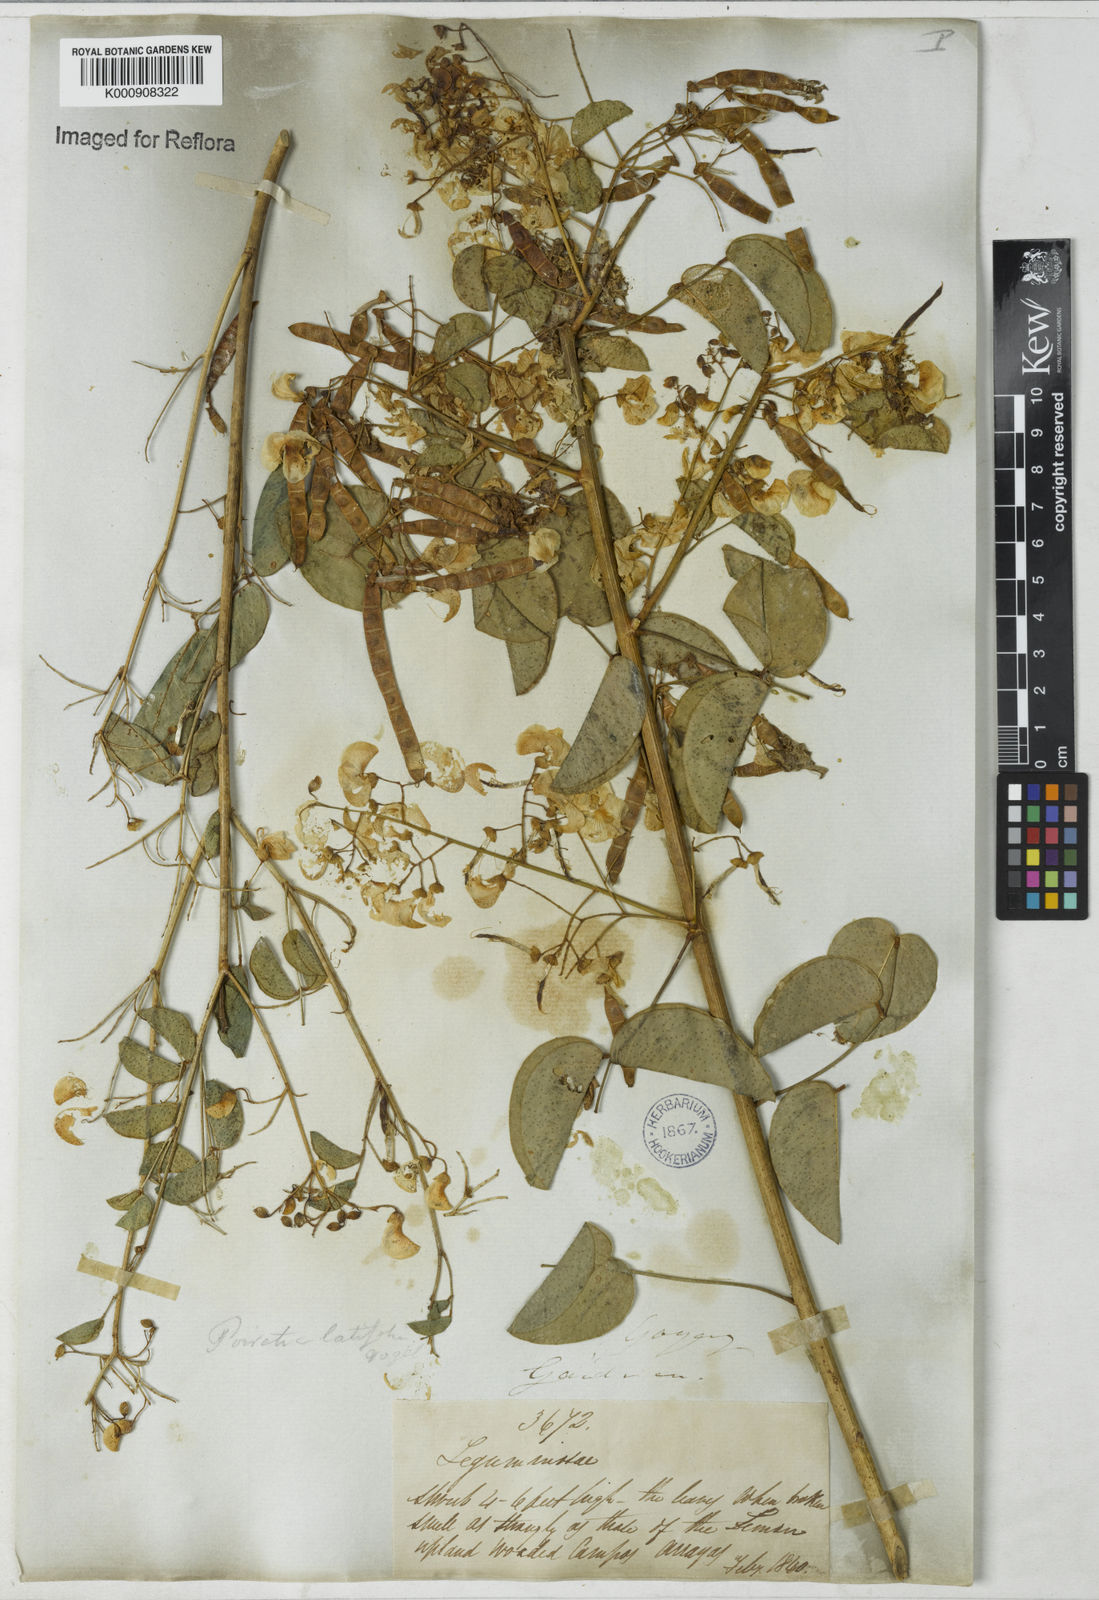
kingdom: Plantae
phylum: Tracheophyta
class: Magnoliopsida
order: Fabales
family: Fabaceae
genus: Poiretia
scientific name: Poiretia latifolia
